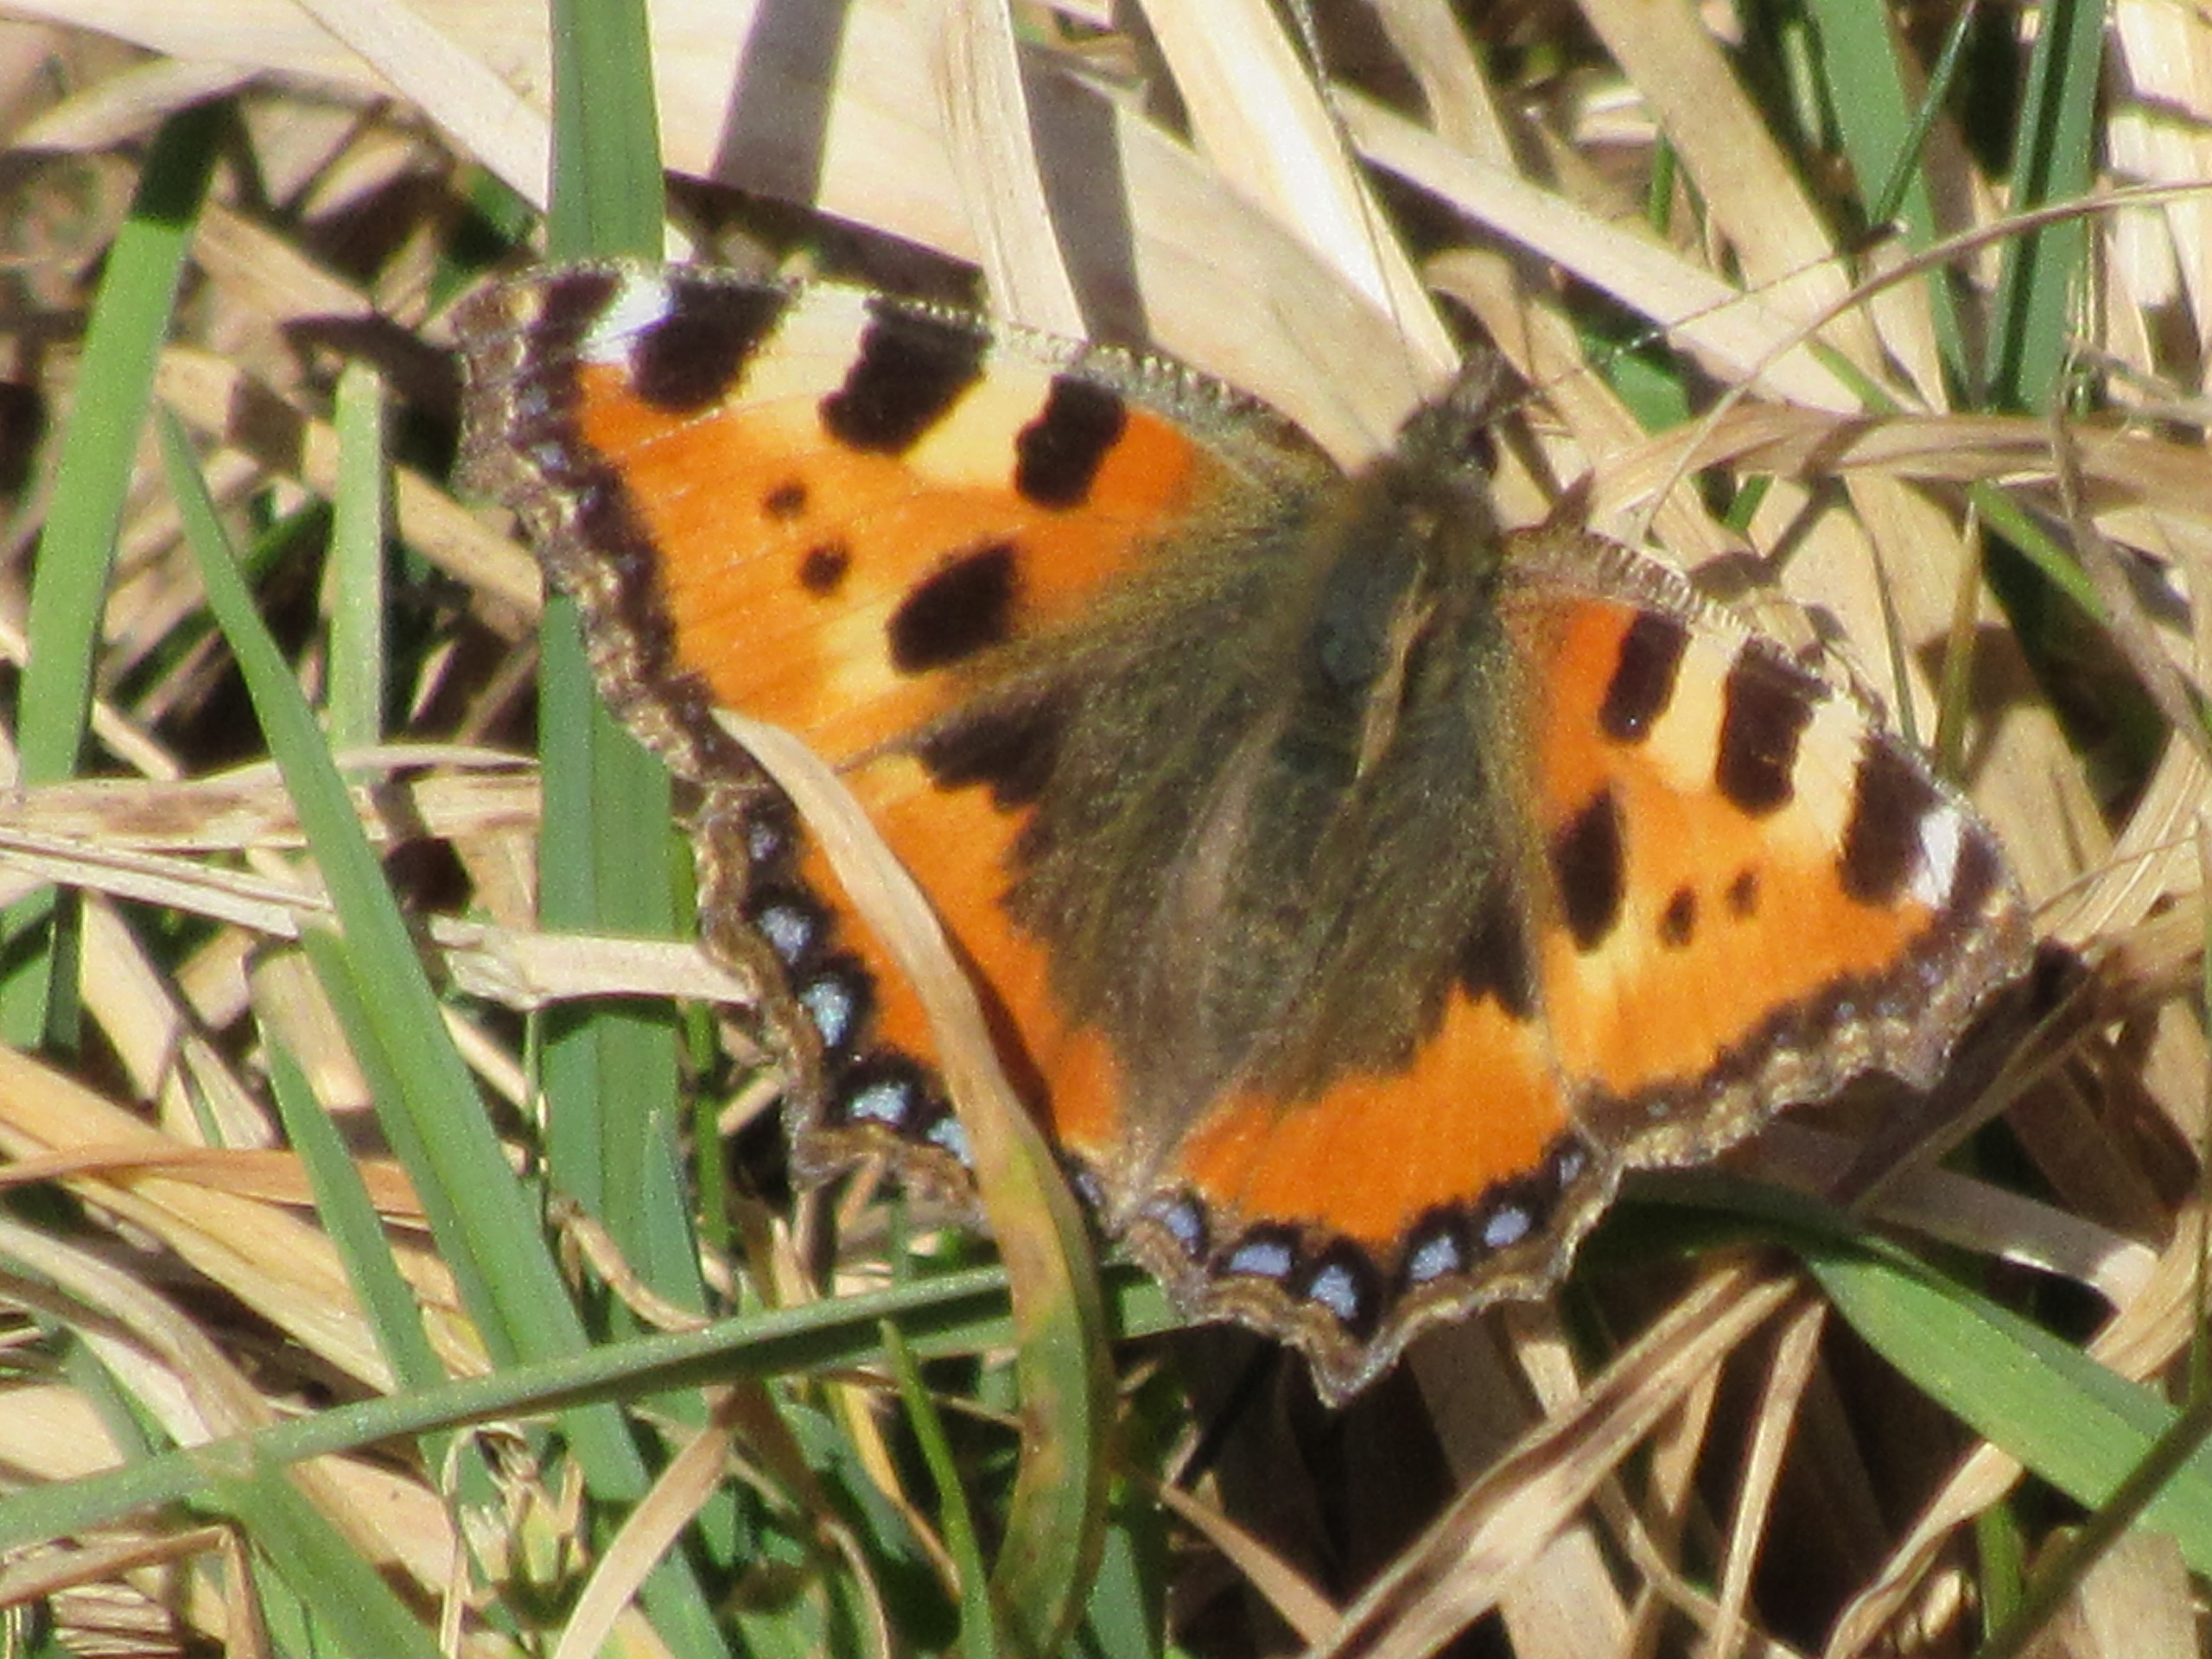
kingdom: Animalia
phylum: Arthropoda
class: Insecta
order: Lepidoptera
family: Nymphalidae
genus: Aglais
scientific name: Aglais urticae
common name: Nældens takvinge
